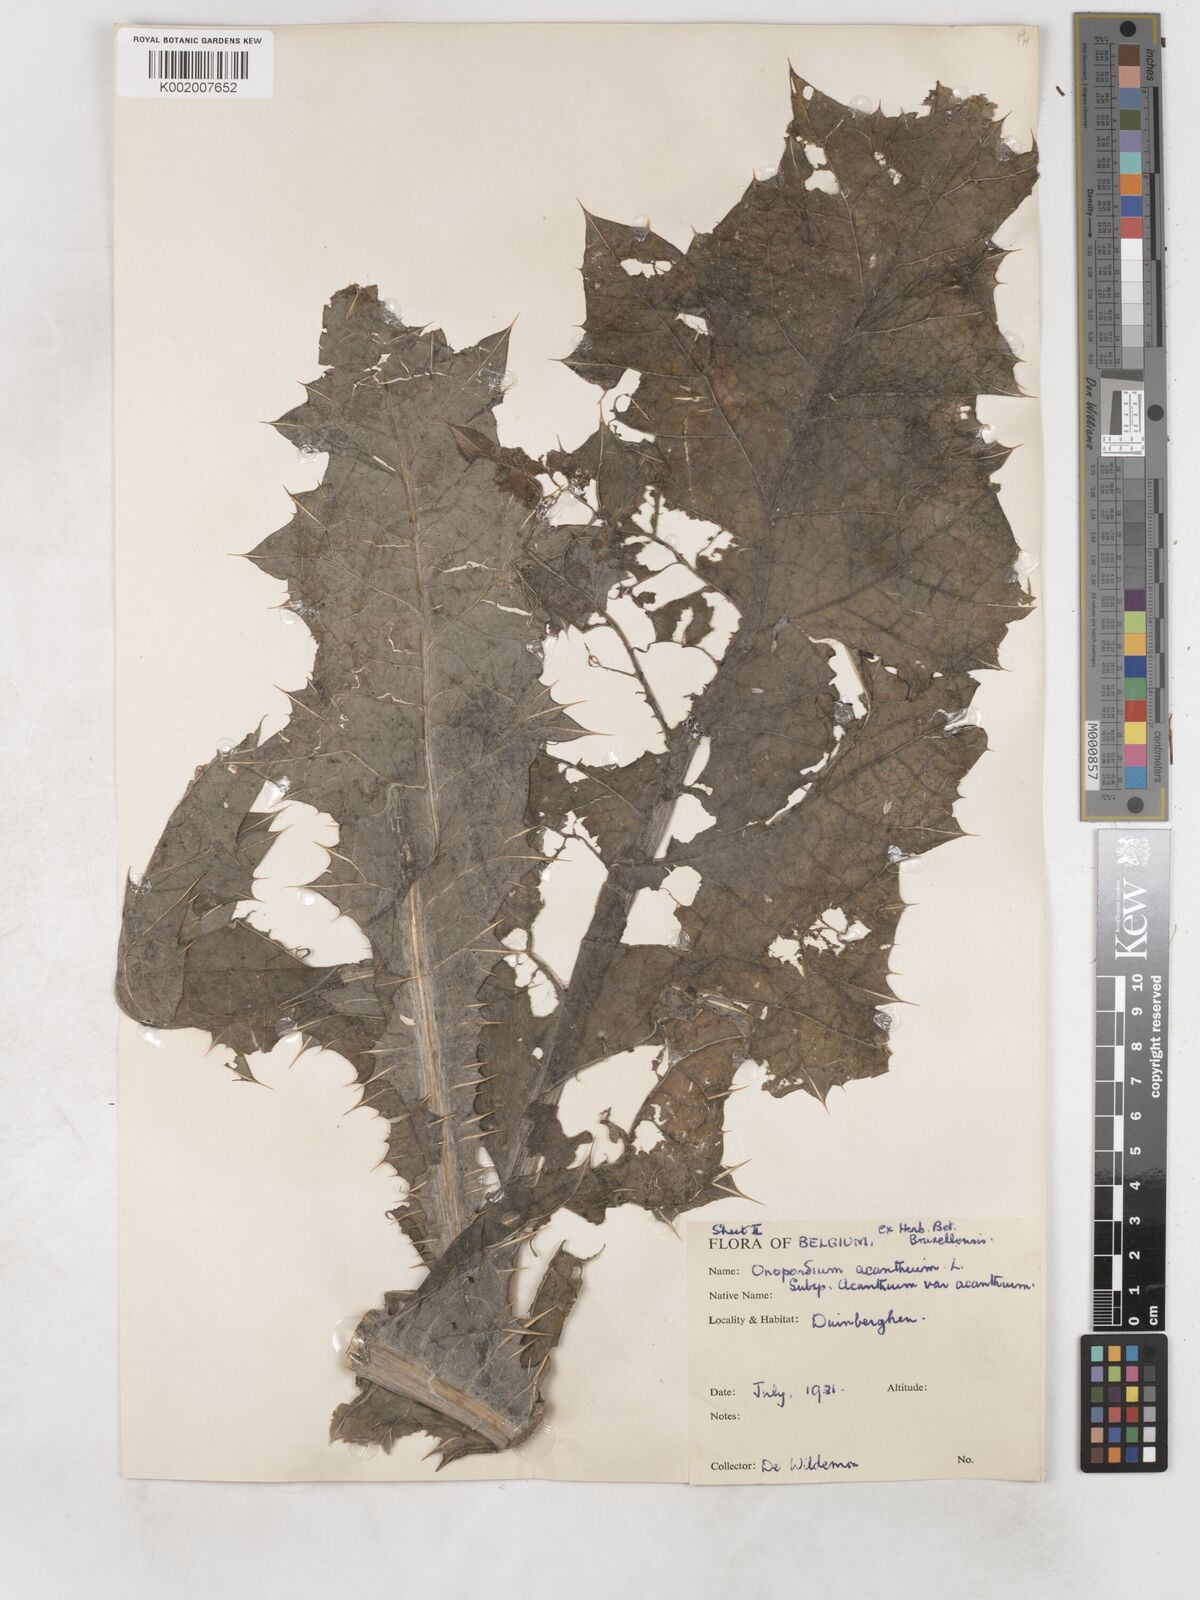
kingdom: Plantae
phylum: Tracheophyta
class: Magnoliopsida
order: Asterales
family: Asteraceae
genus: Onopordum
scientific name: Onopordum acanthium
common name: Scotch thistle
